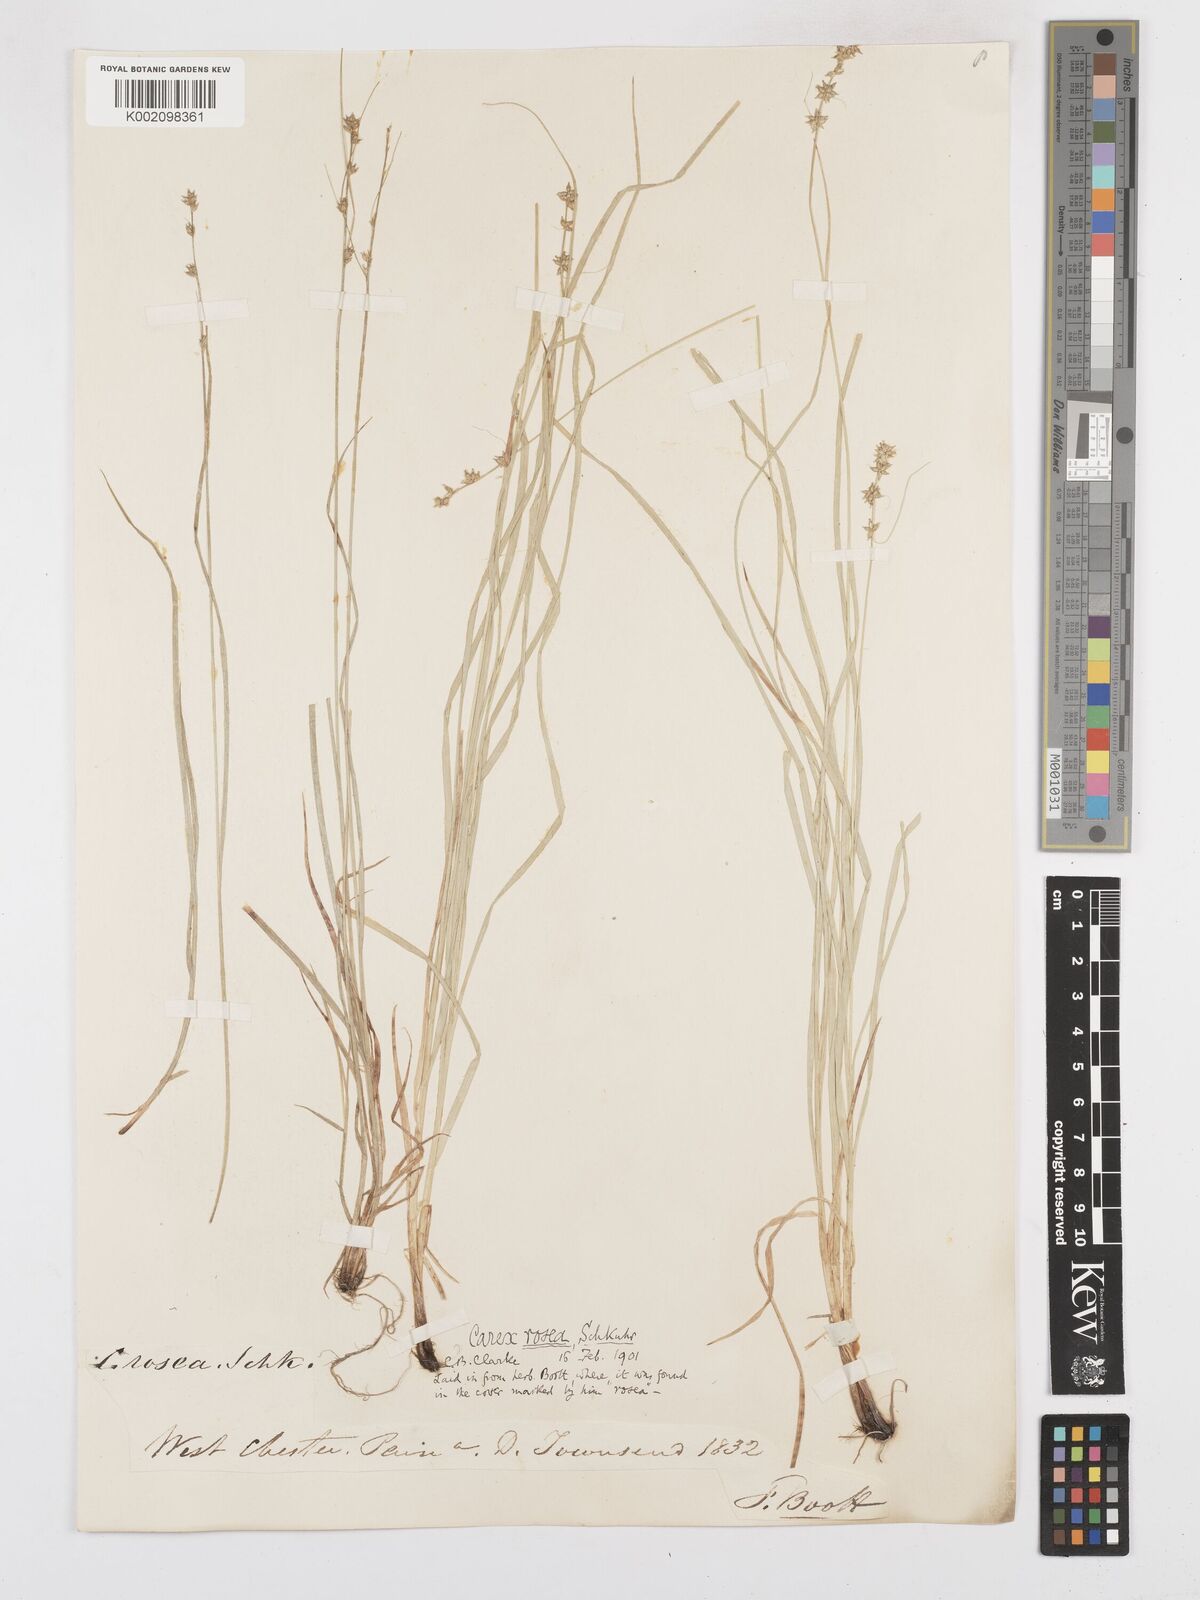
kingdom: Plantae
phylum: Tracheophyta
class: Liliopsida
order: Poales
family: Cyperaceae
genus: Carex
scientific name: Carex rosea
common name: Curly-styled wood sedge
